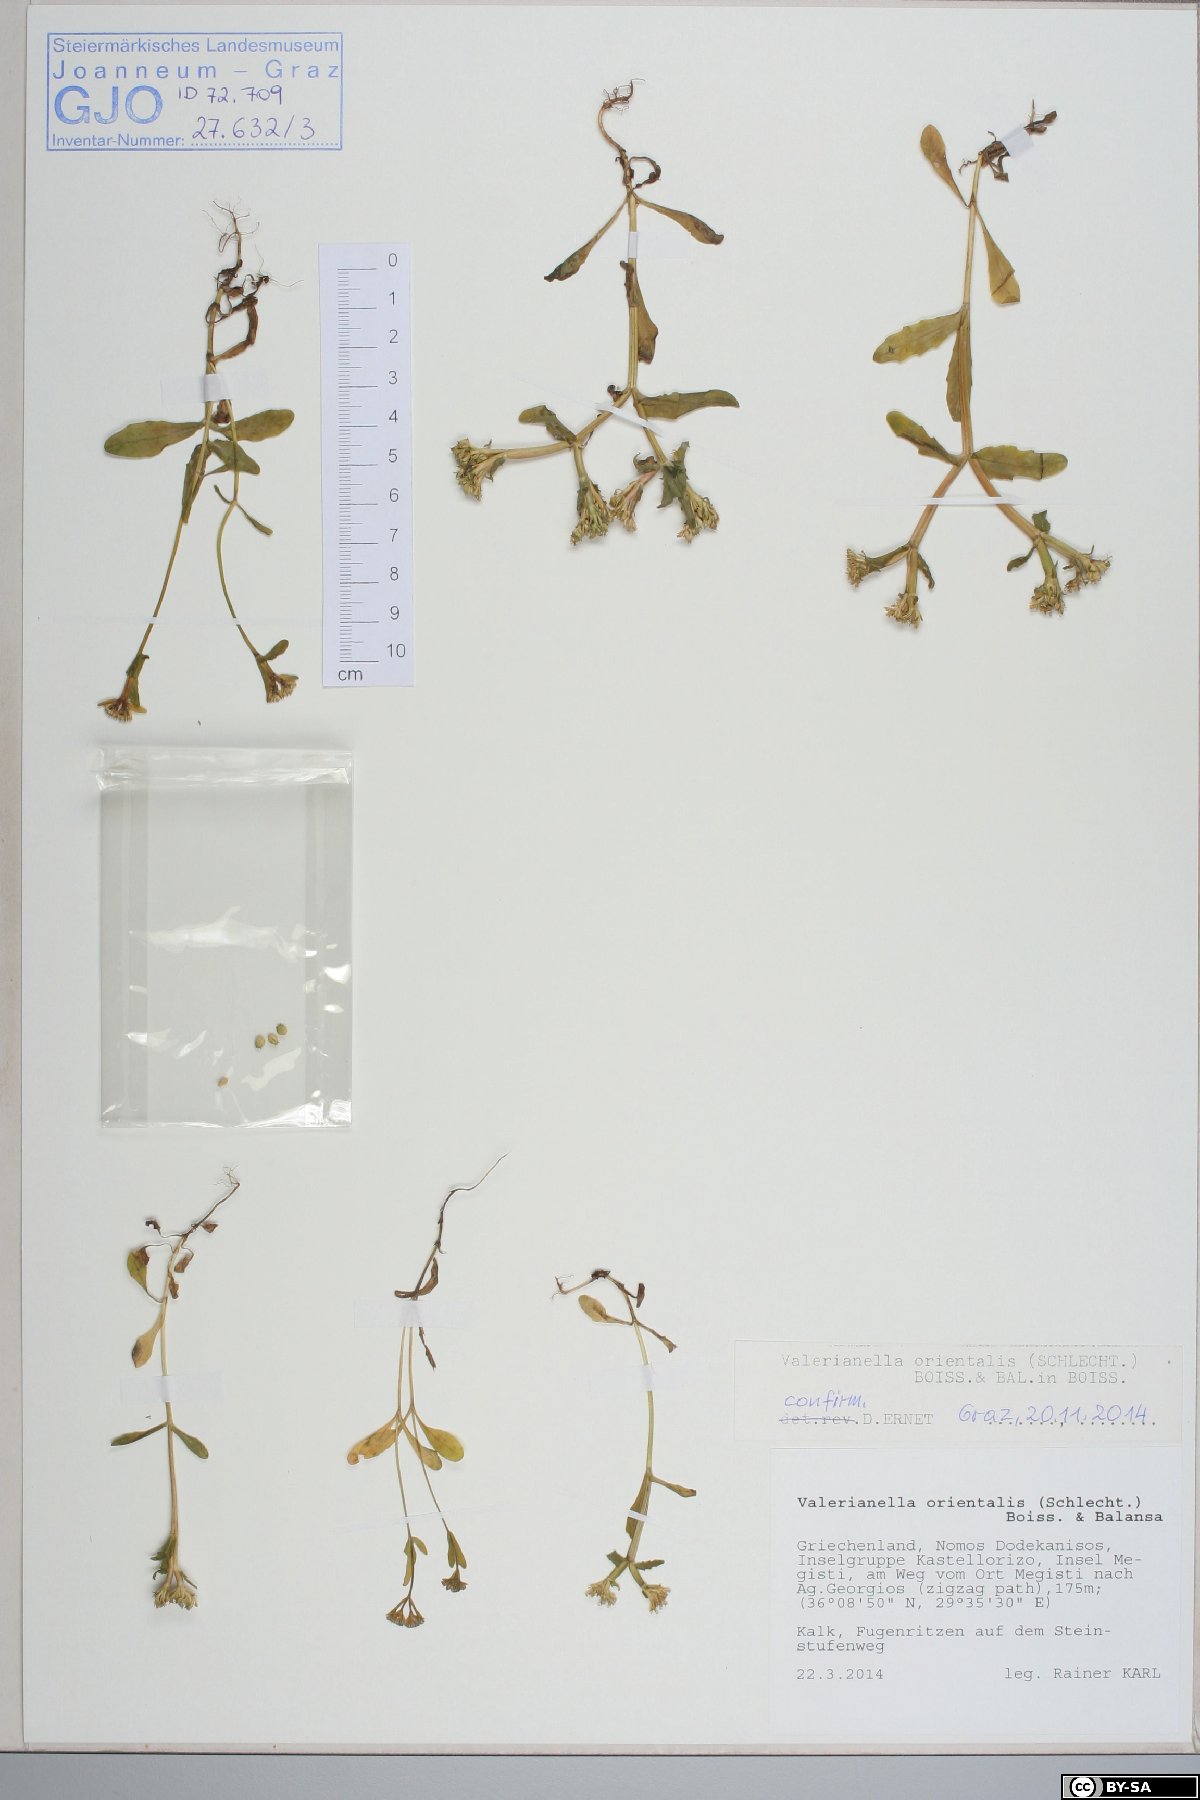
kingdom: Plantae
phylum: Tracheophyta
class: Magnoliopsida
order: Dipsacales
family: Caprifoliaceae
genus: Valerianella
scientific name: Valerianella orientalis
